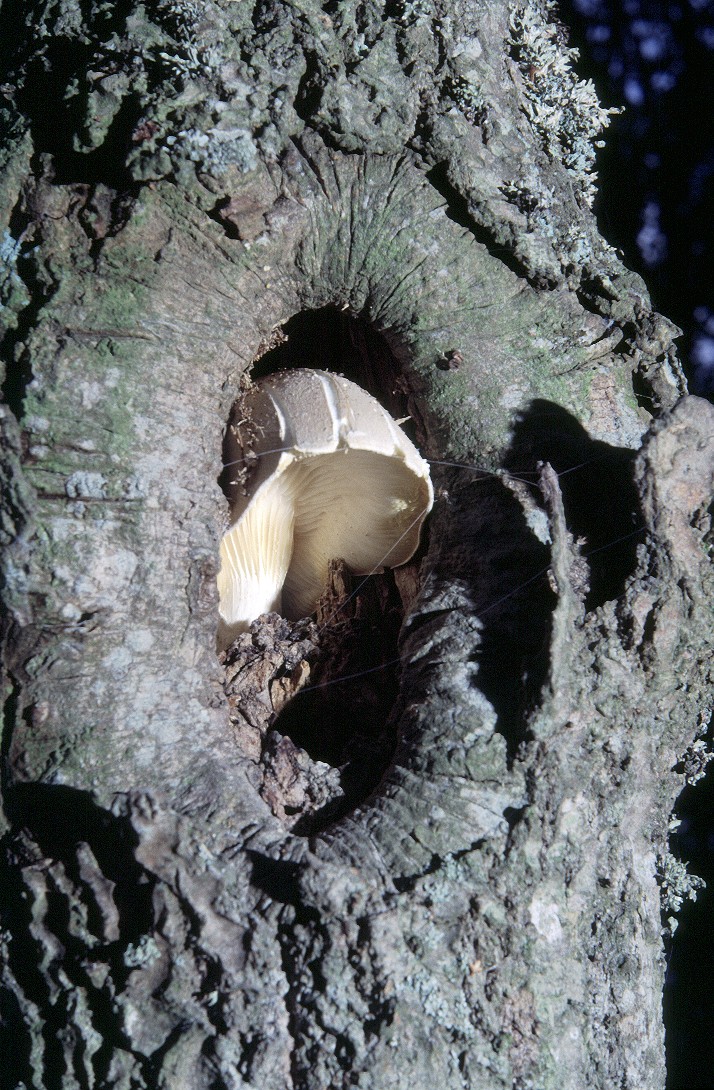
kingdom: Fungi
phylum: Basidiomycota
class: Agaricomycetes
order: Agaricales
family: Pleurotaceae
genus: Pleurotus
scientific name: Pleurotus dryinus
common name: korkagtig østershat
